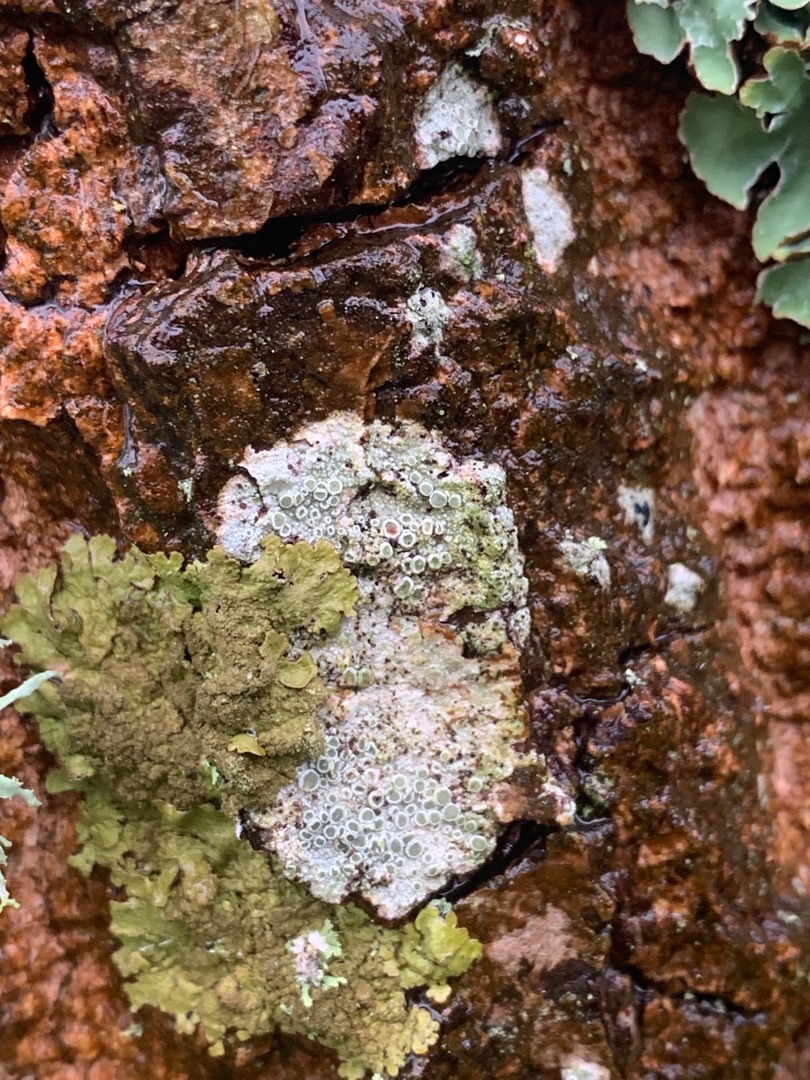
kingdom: Fungi
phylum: Ascomycota
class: Lecanoromycetes
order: Lecanorales
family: Parmeliaceae
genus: Melanelixia
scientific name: Melanelixia subaurifera
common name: Guldpudret skållav
